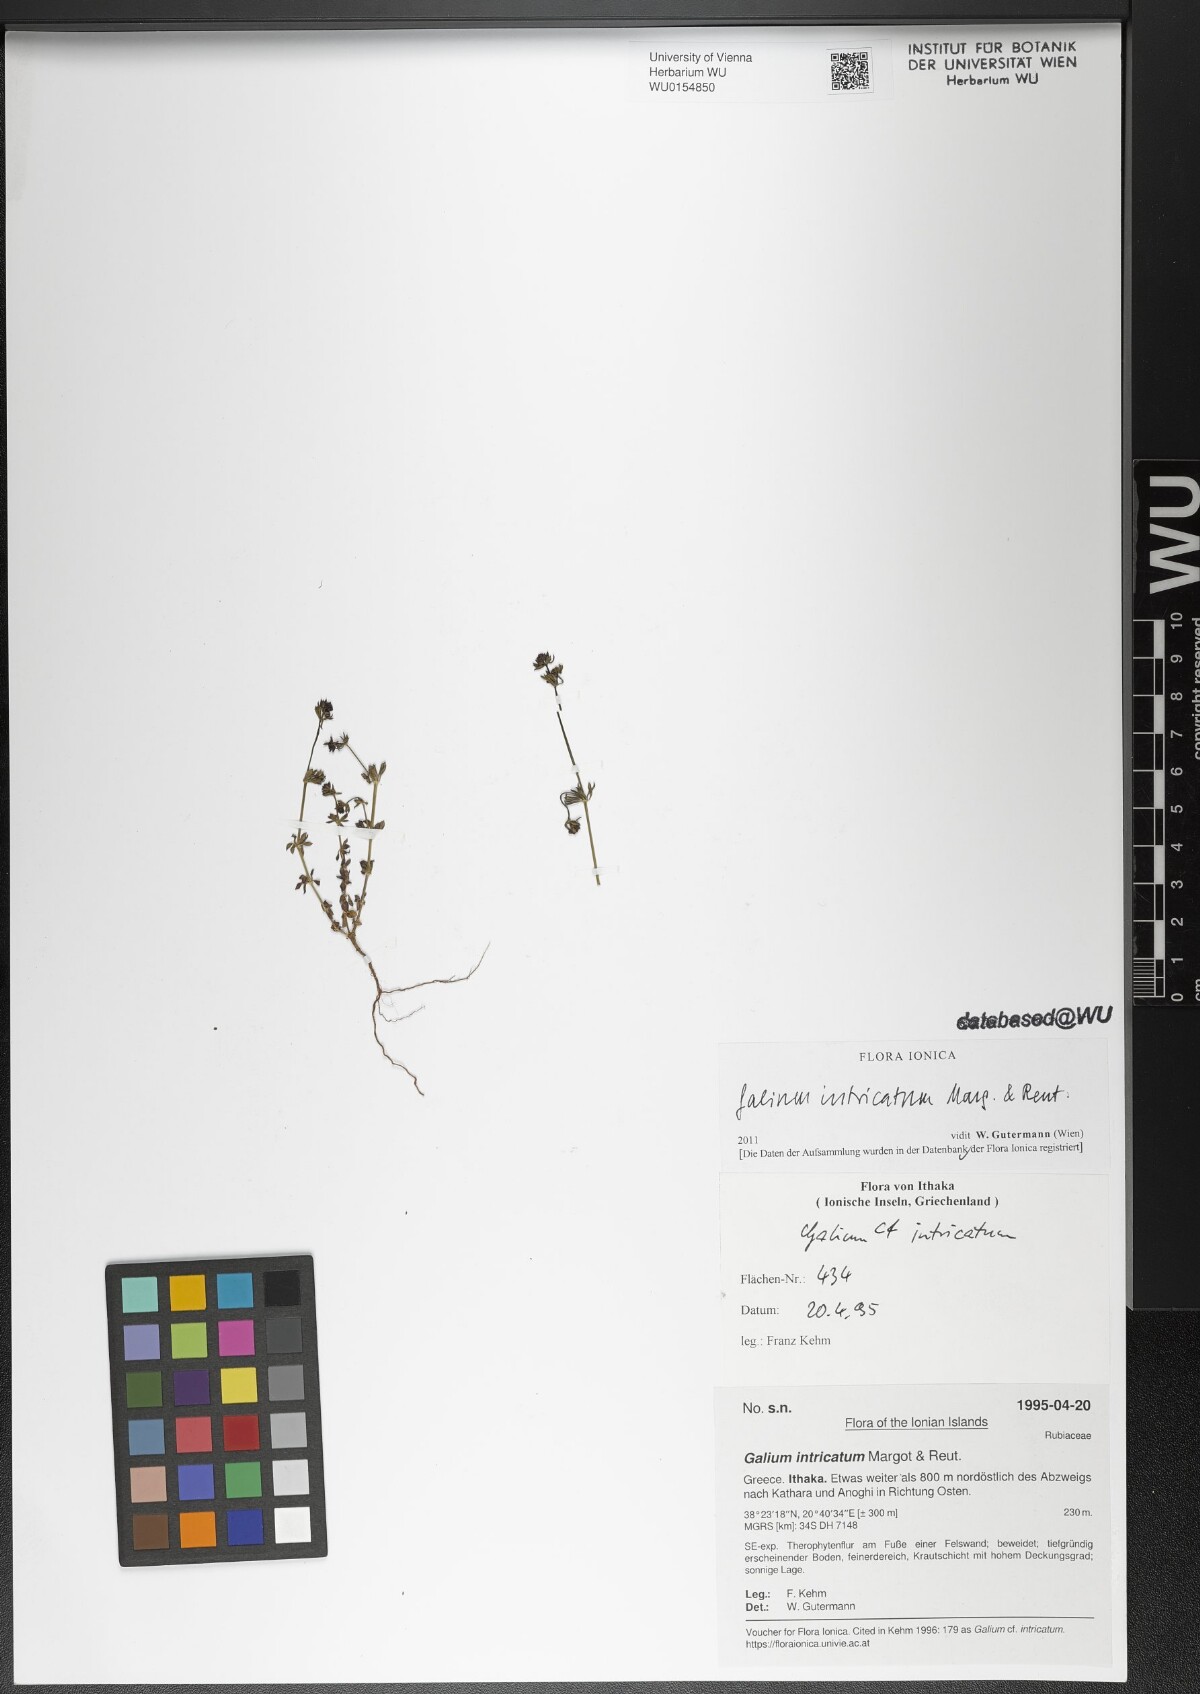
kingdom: Plantae
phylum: Tracheophyta
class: Magnoliopsida
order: Gentianales
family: Rubiaceae
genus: Galium
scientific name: Galium intricatum
